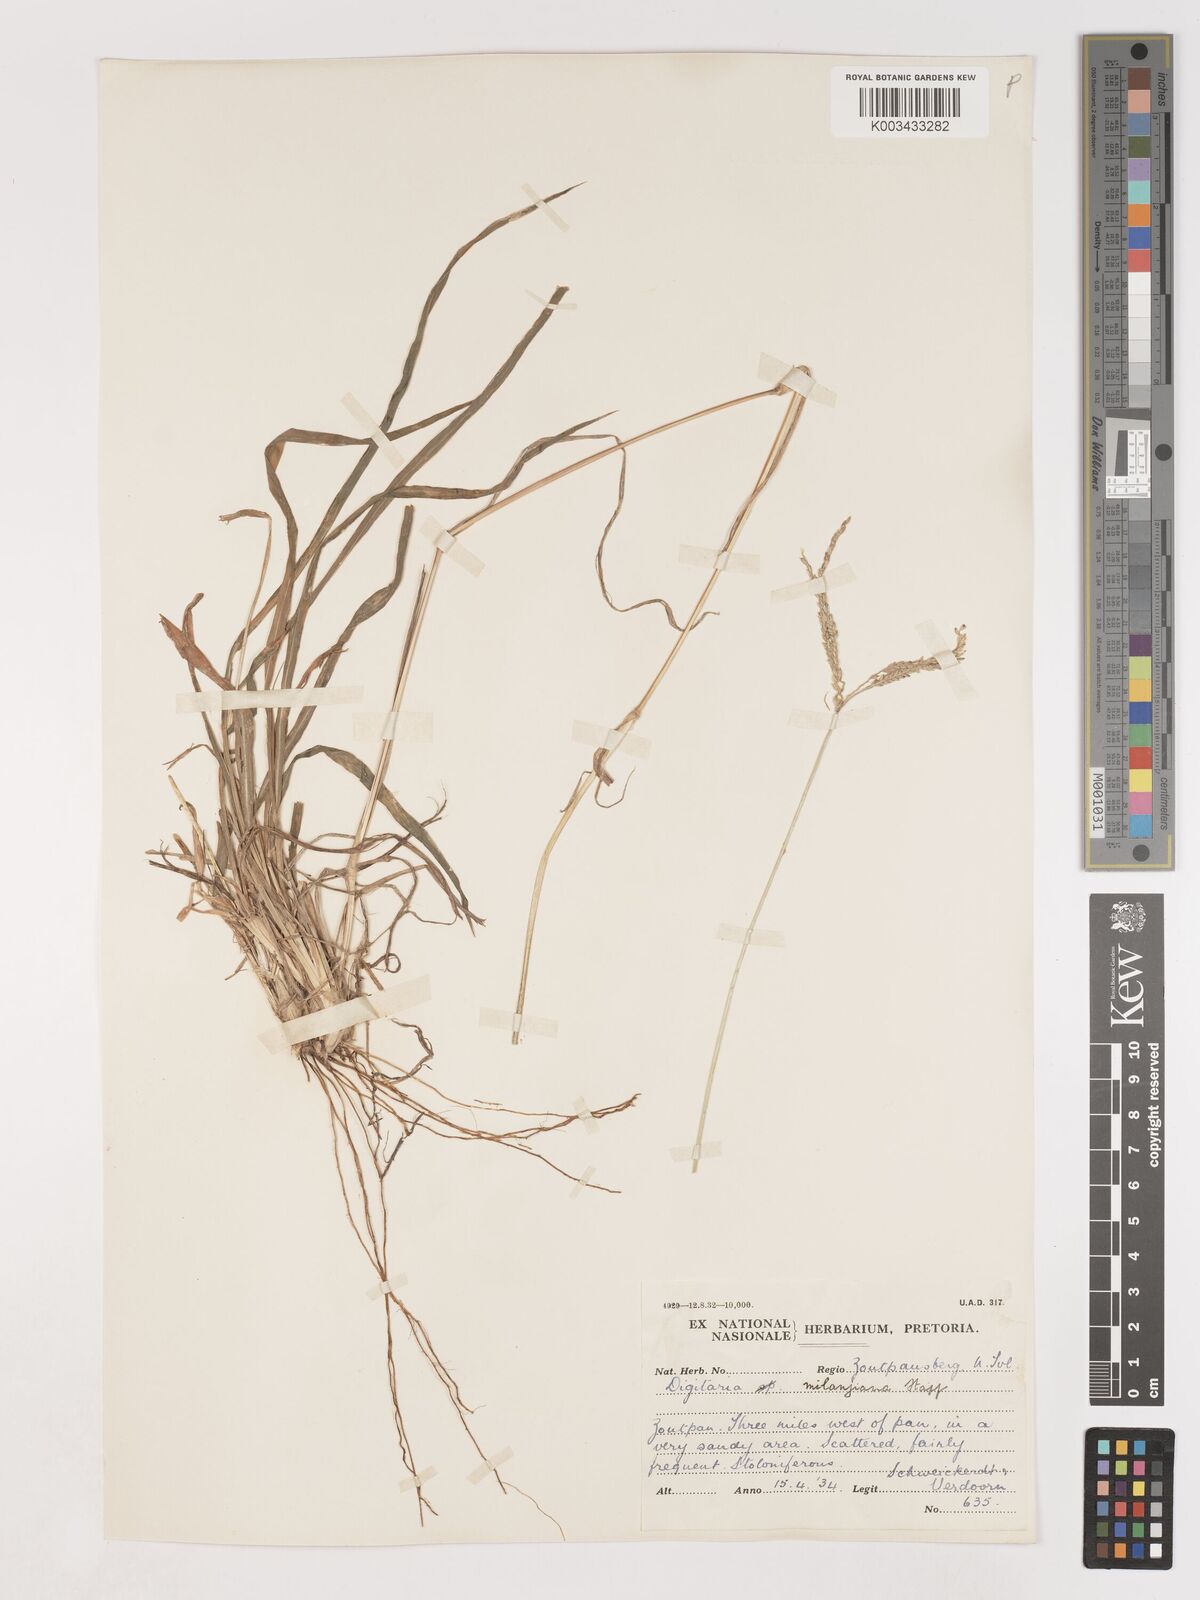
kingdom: Plantae
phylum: Tracheophyta
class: Liliopsida
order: Poales
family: Poaceae
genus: Digitaria
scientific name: Digitaria eriantha
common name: Digitgrass
